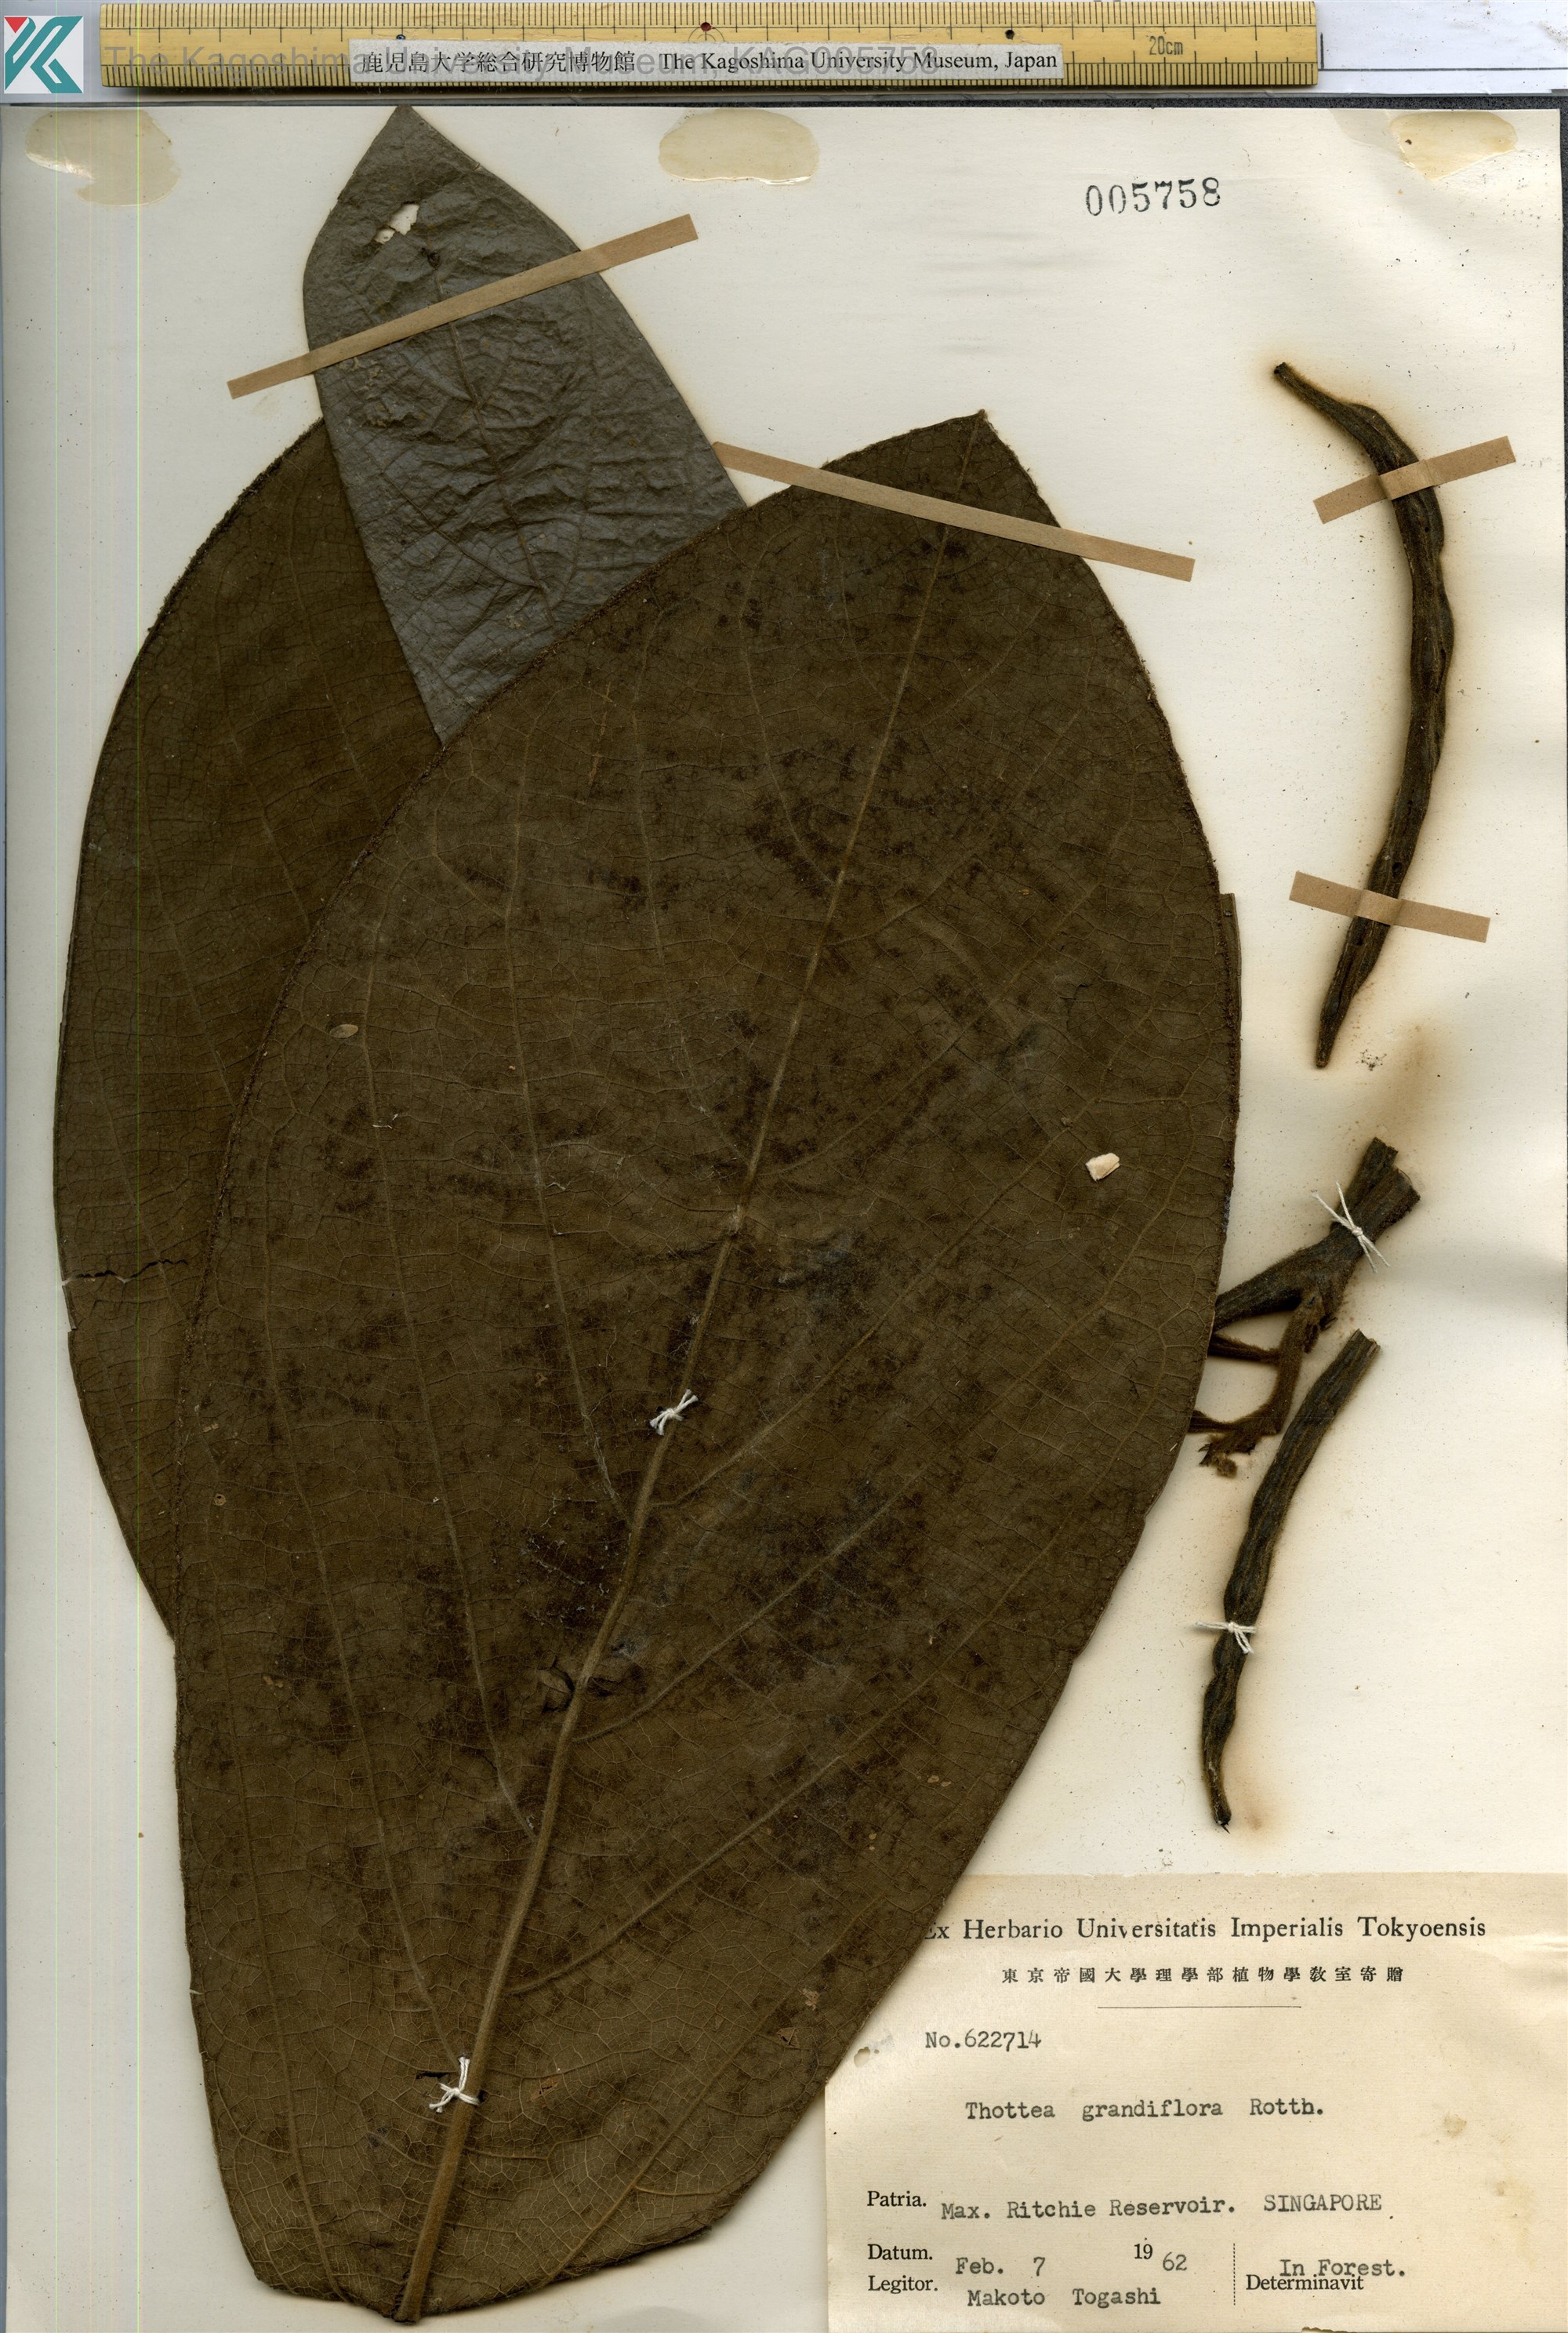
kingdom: Plantae
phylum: Tracheophyta
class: Magnoliopsida
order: Piperales
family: Aristolochiaceae
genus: Thottea
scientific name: Thottea grandiflora
